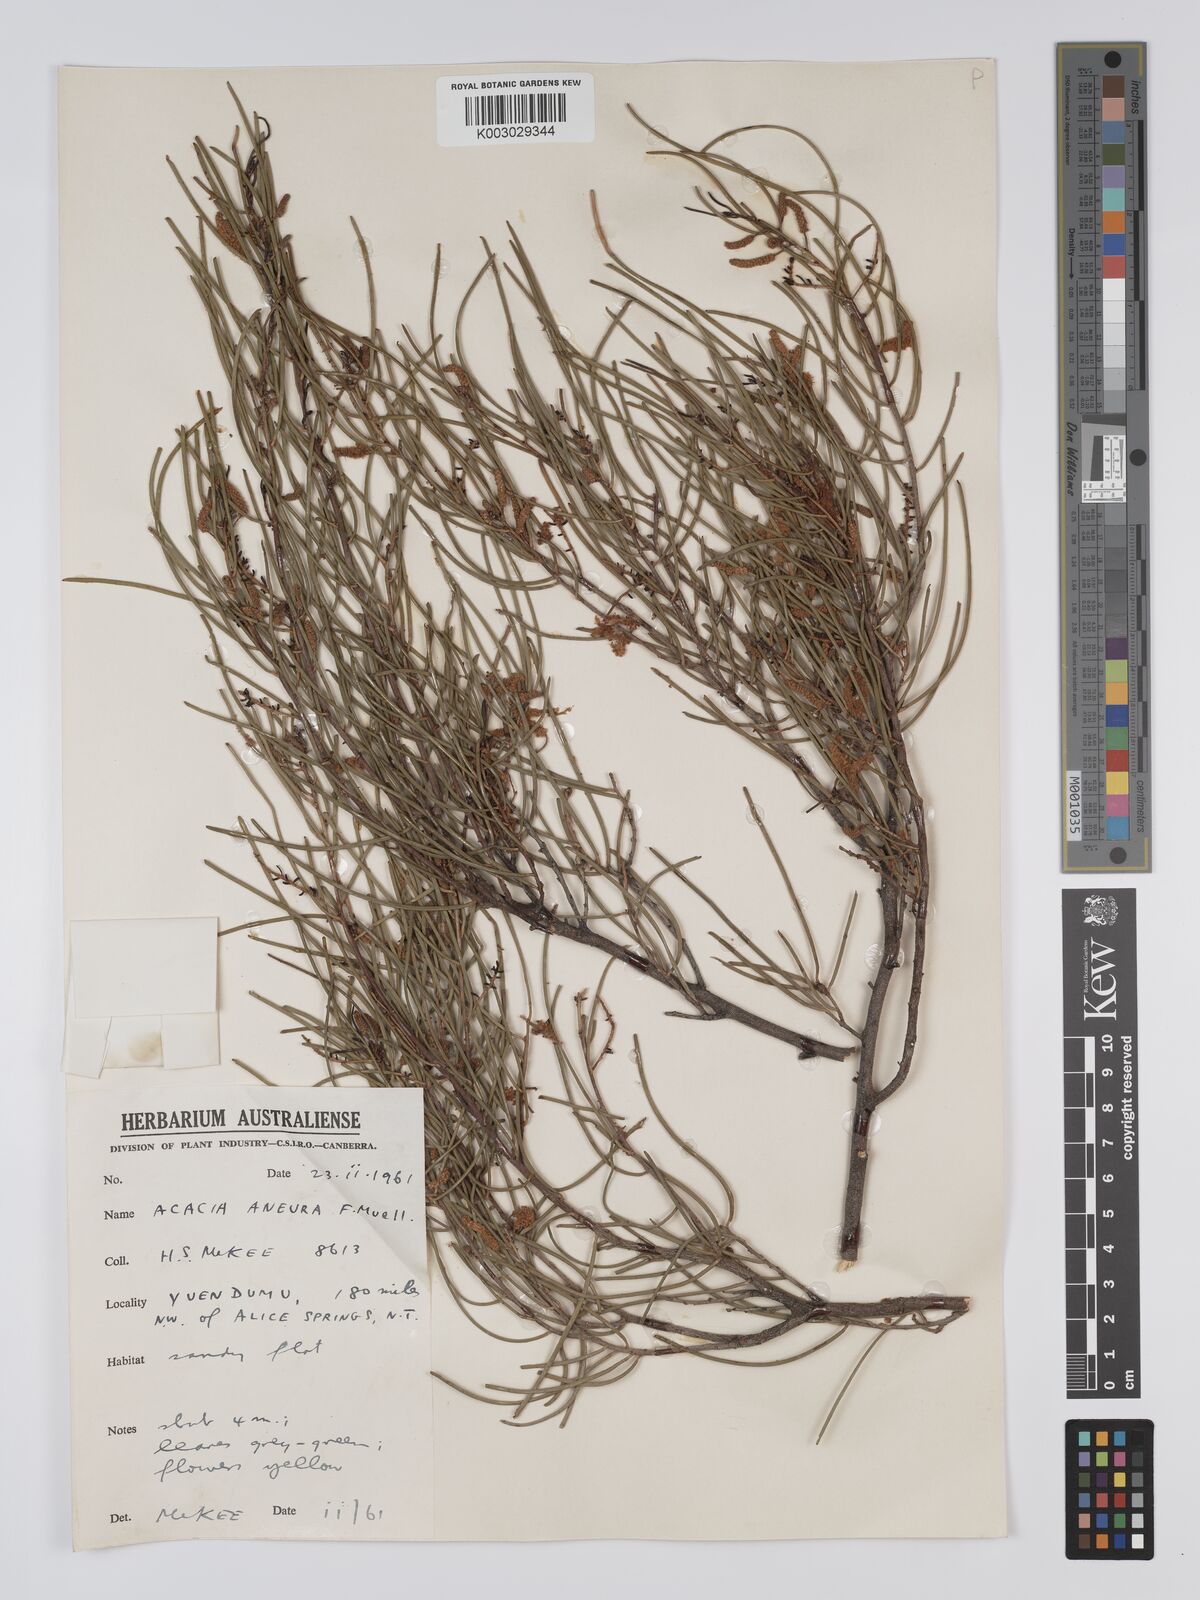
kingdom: Plantae
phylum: Tracheophyta
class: Magnoliopsida
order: Fabales
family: Fabaceae
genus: Acacia
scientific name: Acacia aneura
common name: Mulga
